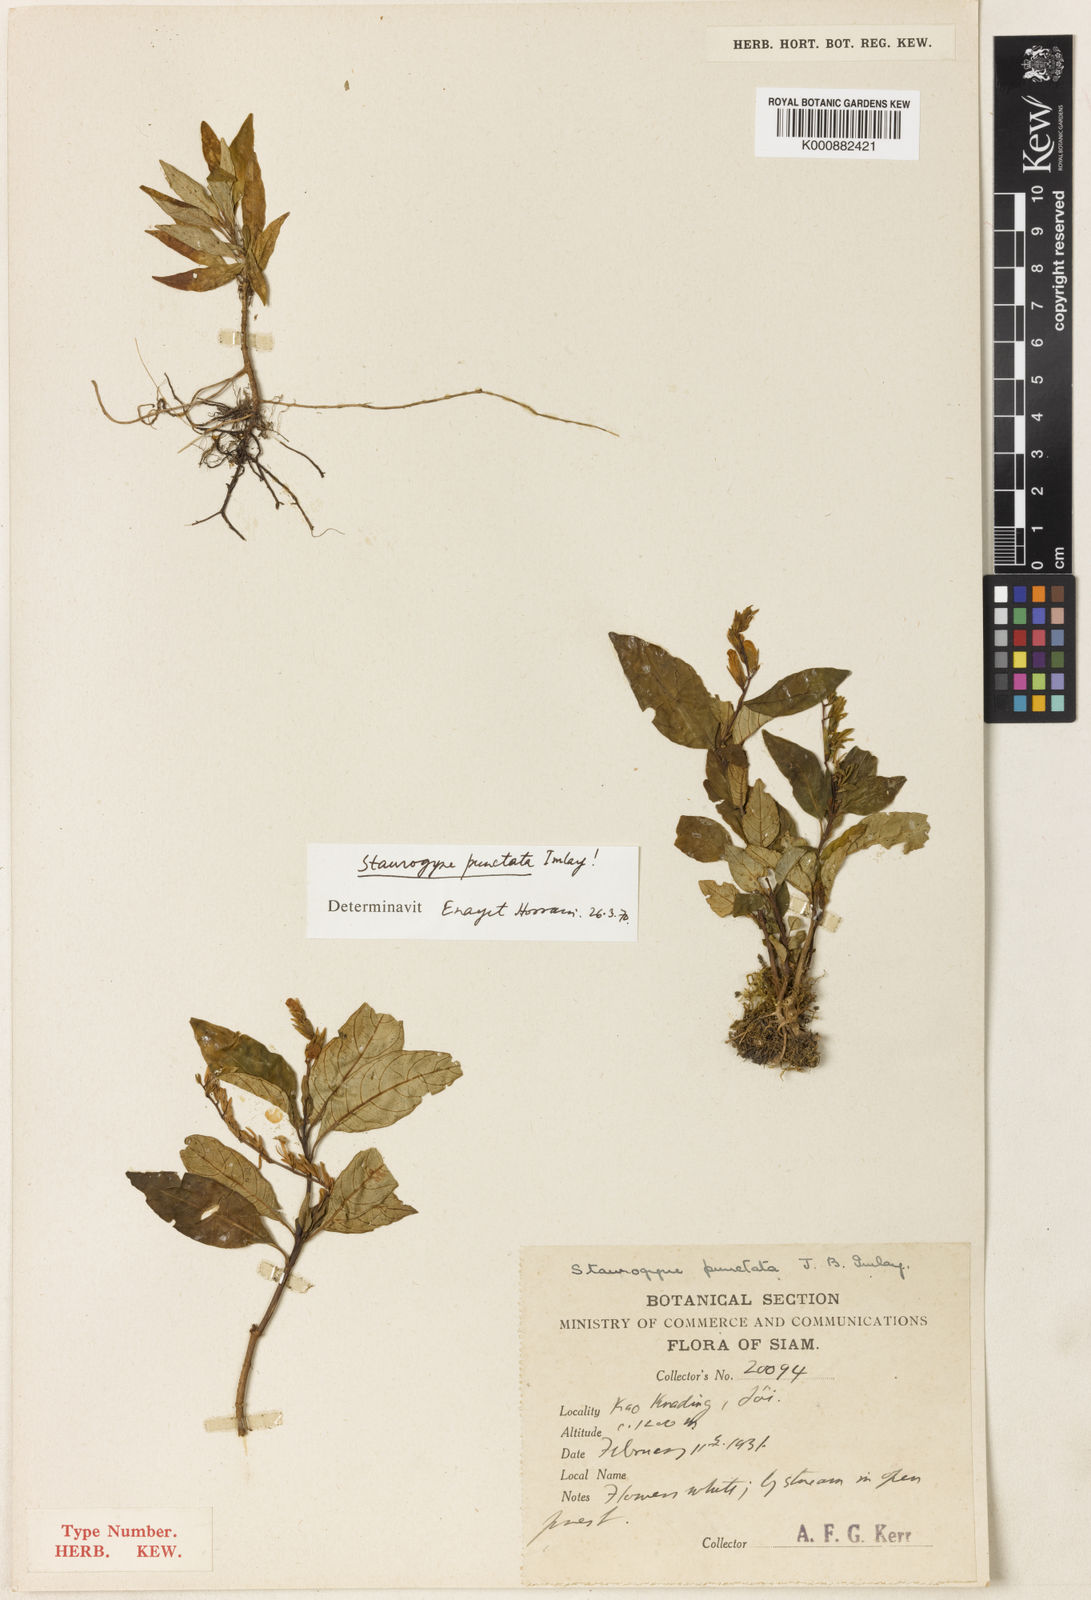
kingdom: Plantae
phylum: Tracheophyta
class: Magnoliopsida
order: Lamiales
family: Acanthaceae
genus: Staurogyne
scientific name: Staurogyne punctata
